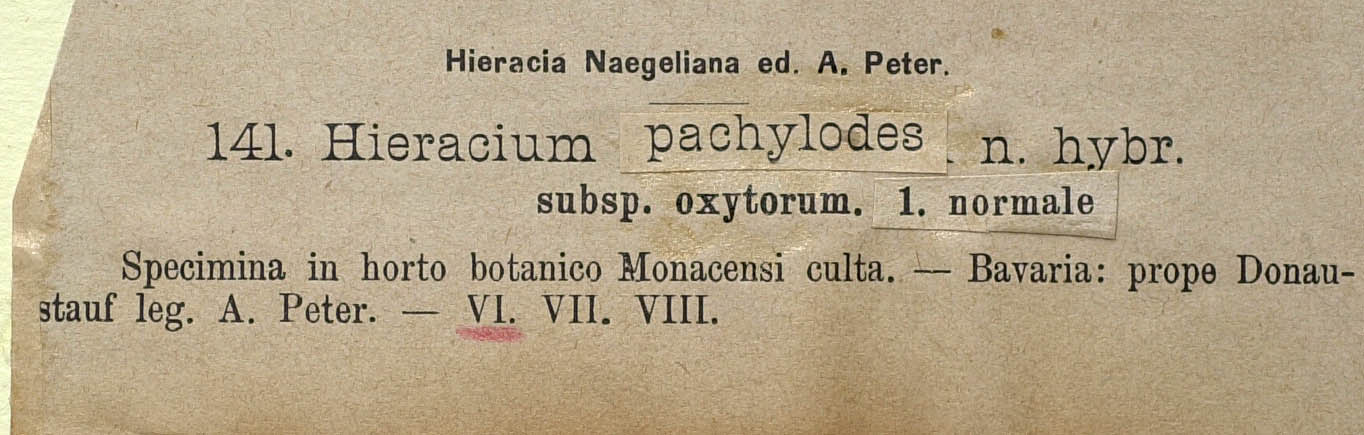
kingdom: Plantae
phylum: Tracheophyta
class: Magnoliopsida
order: Asterales
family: Asteraceae
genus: Pilosella
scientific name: Pilosella longisquama
